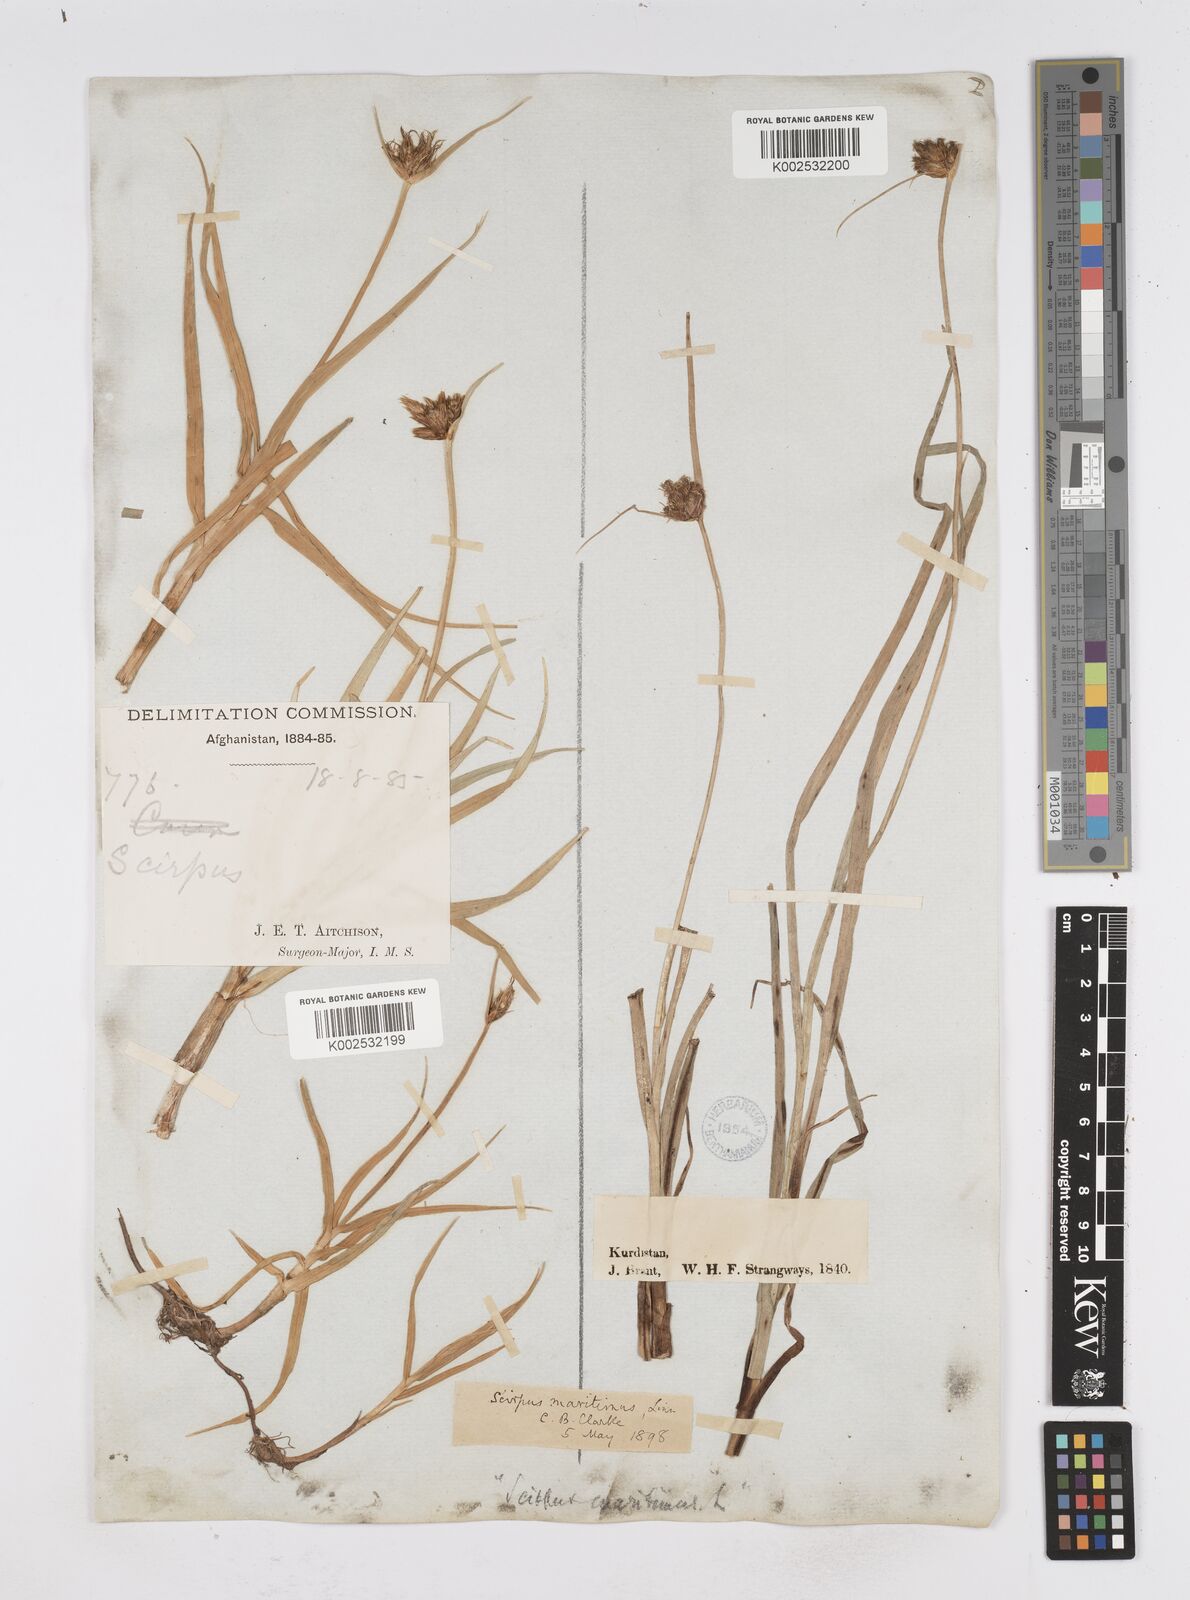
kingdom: Plantae
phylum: Tracheophyta
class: Liliopsida
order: Poales
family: Cyperaceae
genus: Bolboschoenus
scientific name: Bolboschoenus maritimus
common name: Sea club-rush
